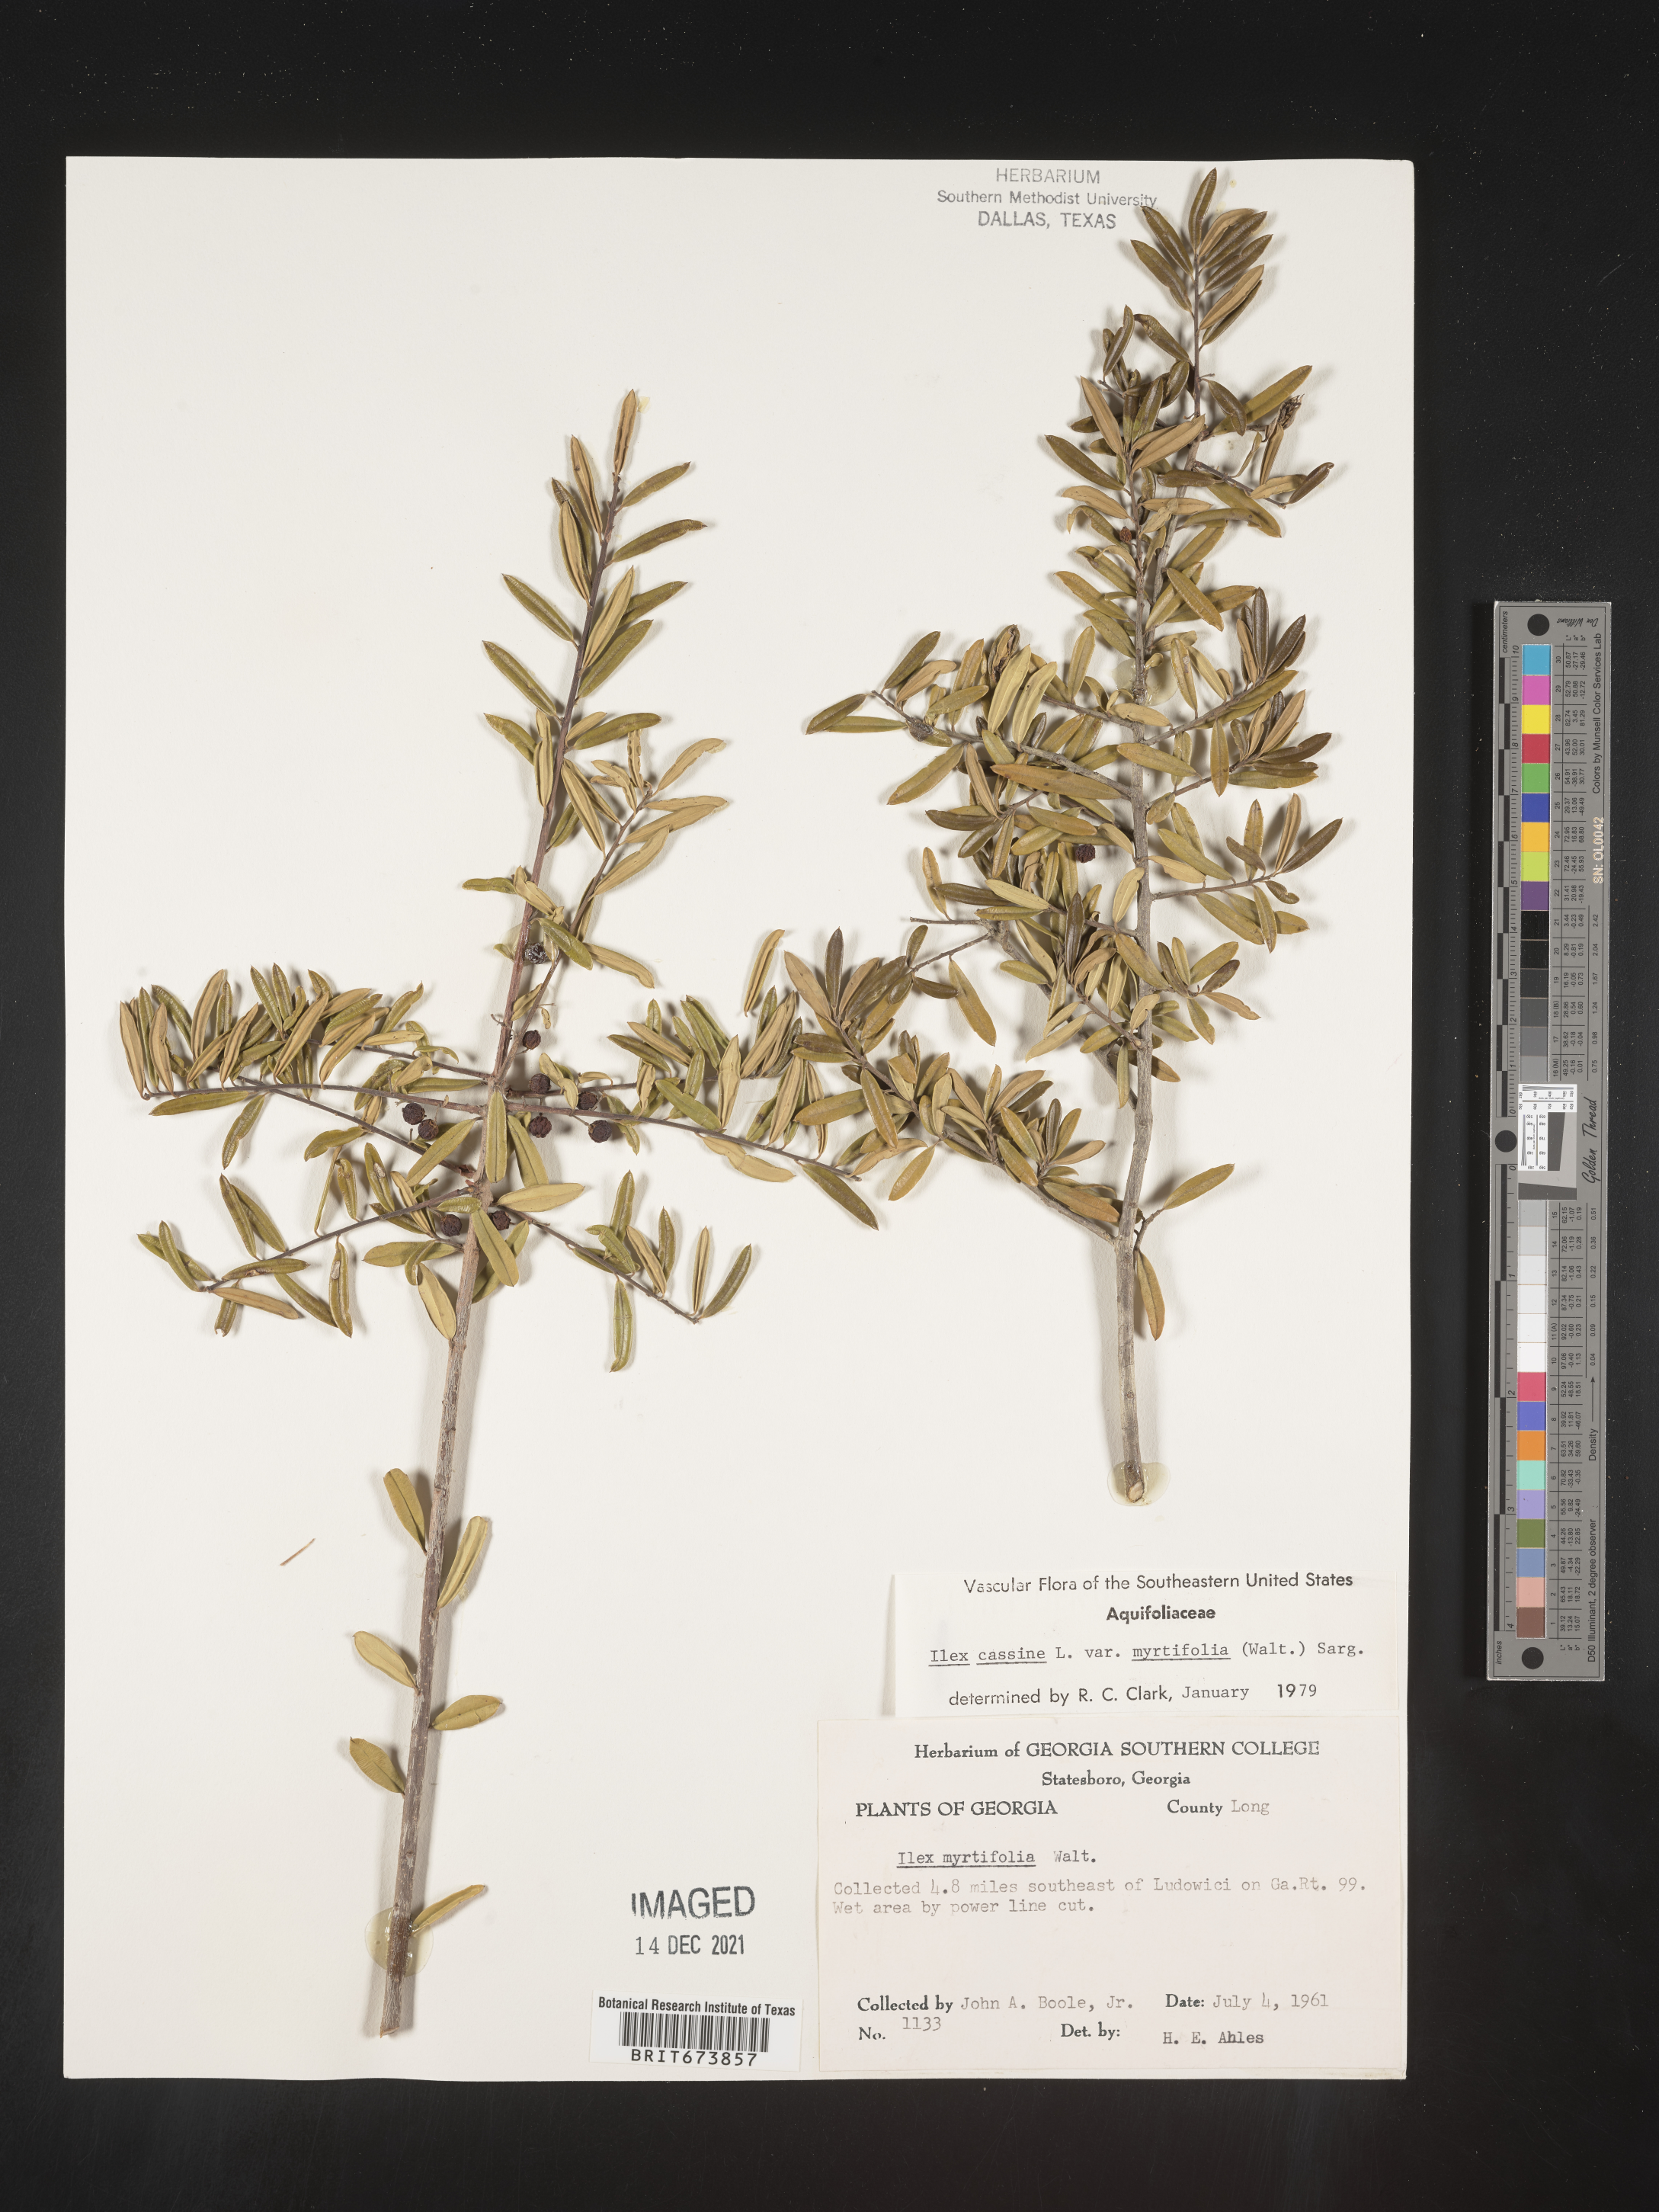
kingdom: Plantae
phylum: Tracheophyta
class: Magnoliopsida
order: Aquifoliales
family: Aquifoliaceae
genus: Ilex
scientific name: Ilex myrtifolia
